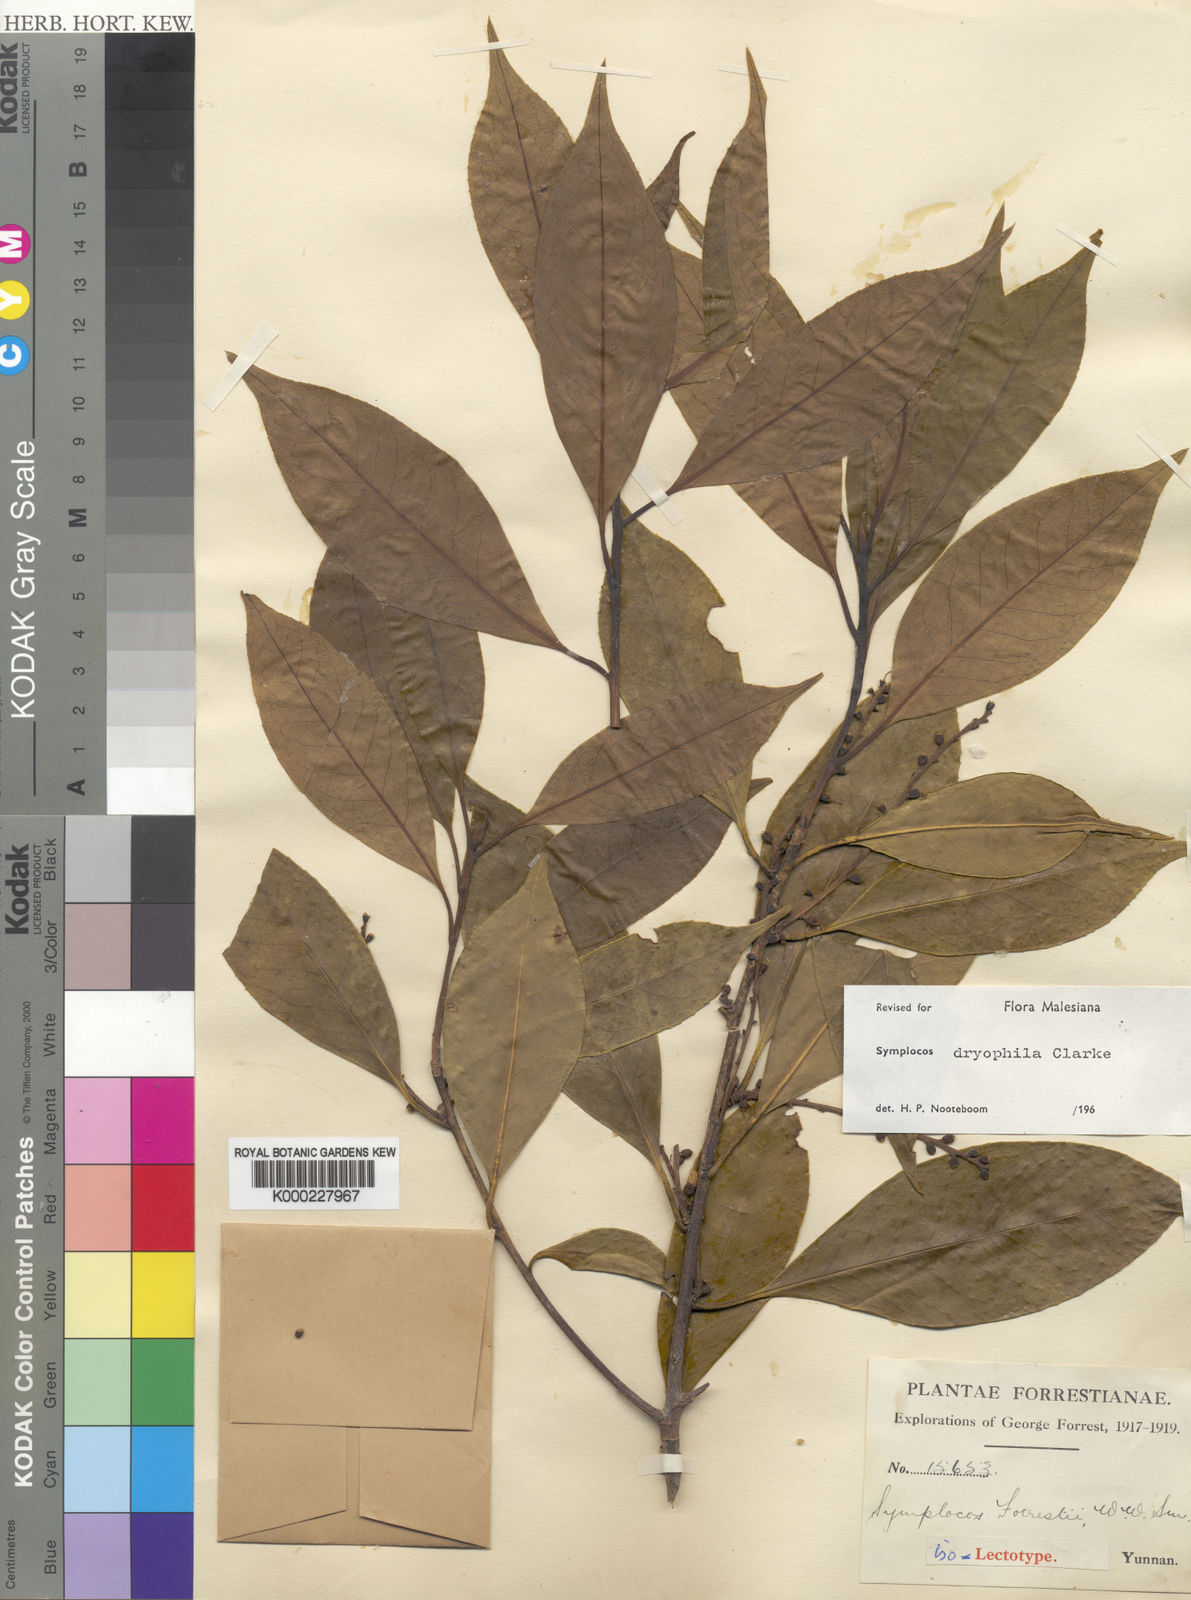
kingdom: Plantae
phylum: Tracheophyta
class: Magnoliopsida
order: Ericales
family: Symplocaceae
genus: Symplocos
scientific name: Symplocos dryophila
